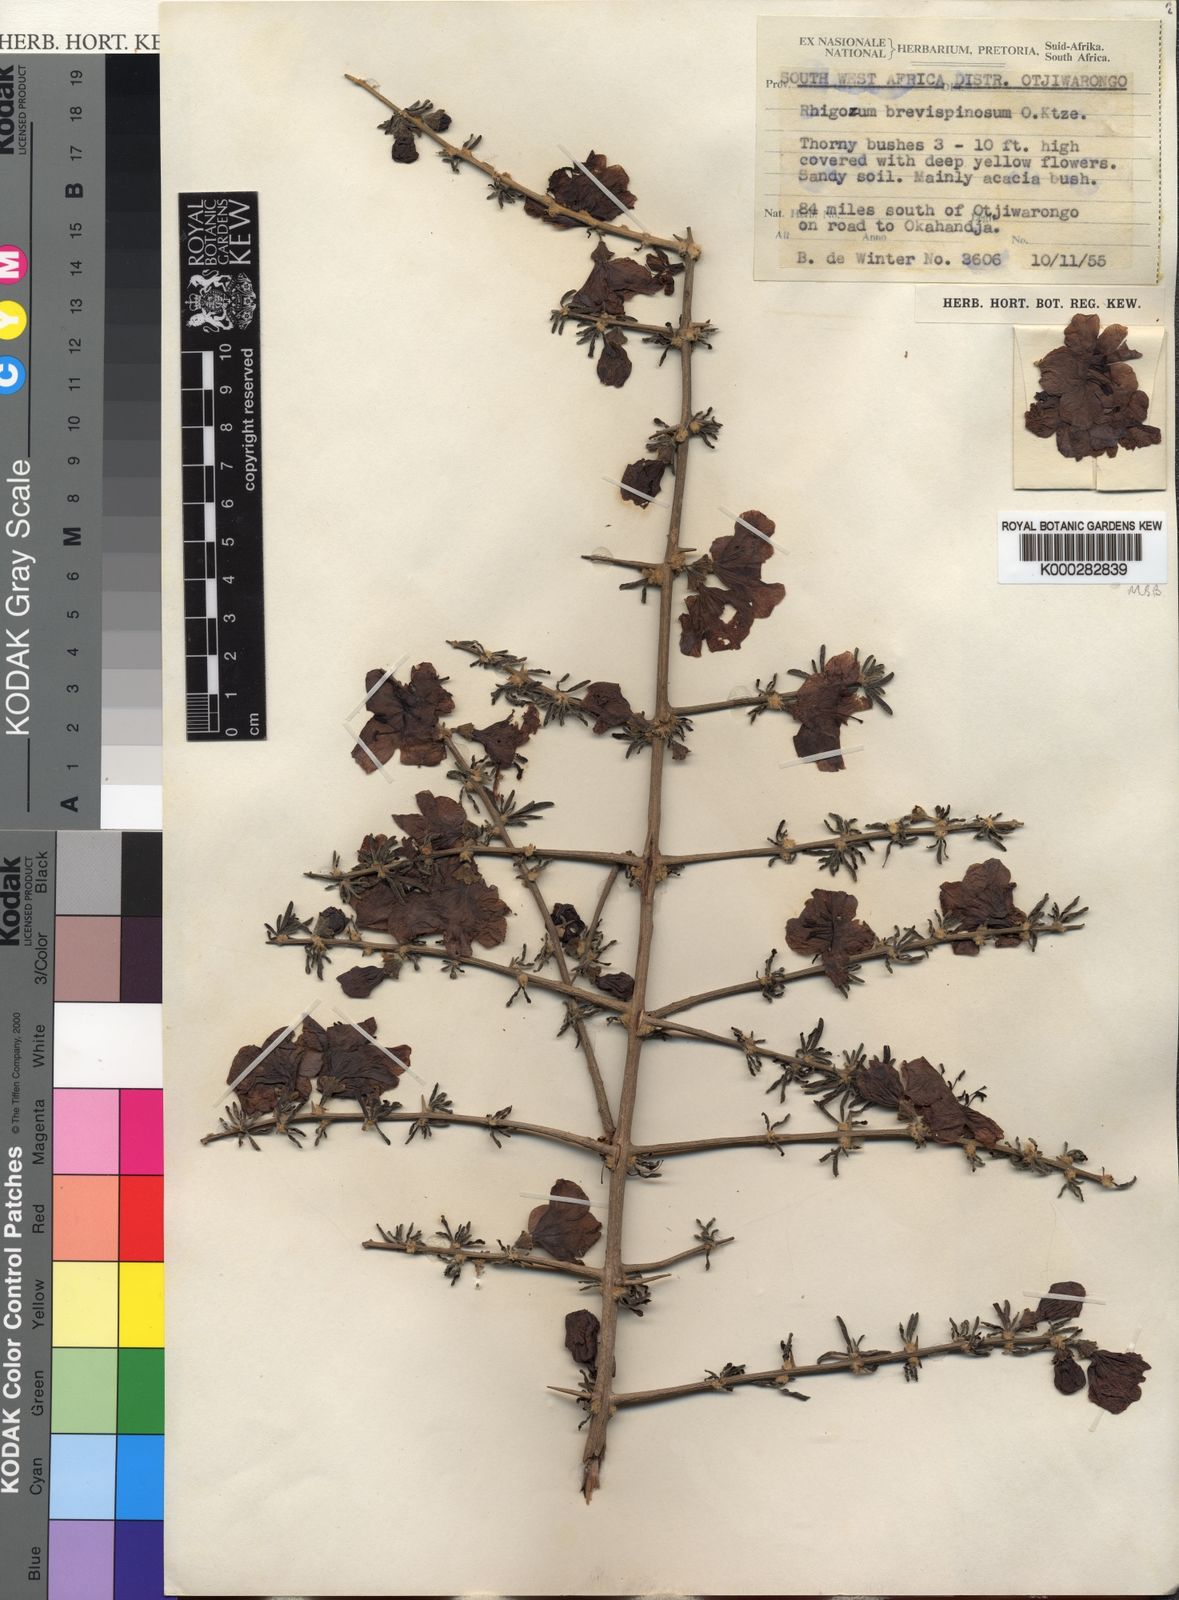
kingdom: Plantae
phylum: Tracheophyta
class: Magnoliopsida
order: Lamiales
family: Bignoniaceae
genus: Rhigozum
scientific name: Rhigozum brevispinosum
